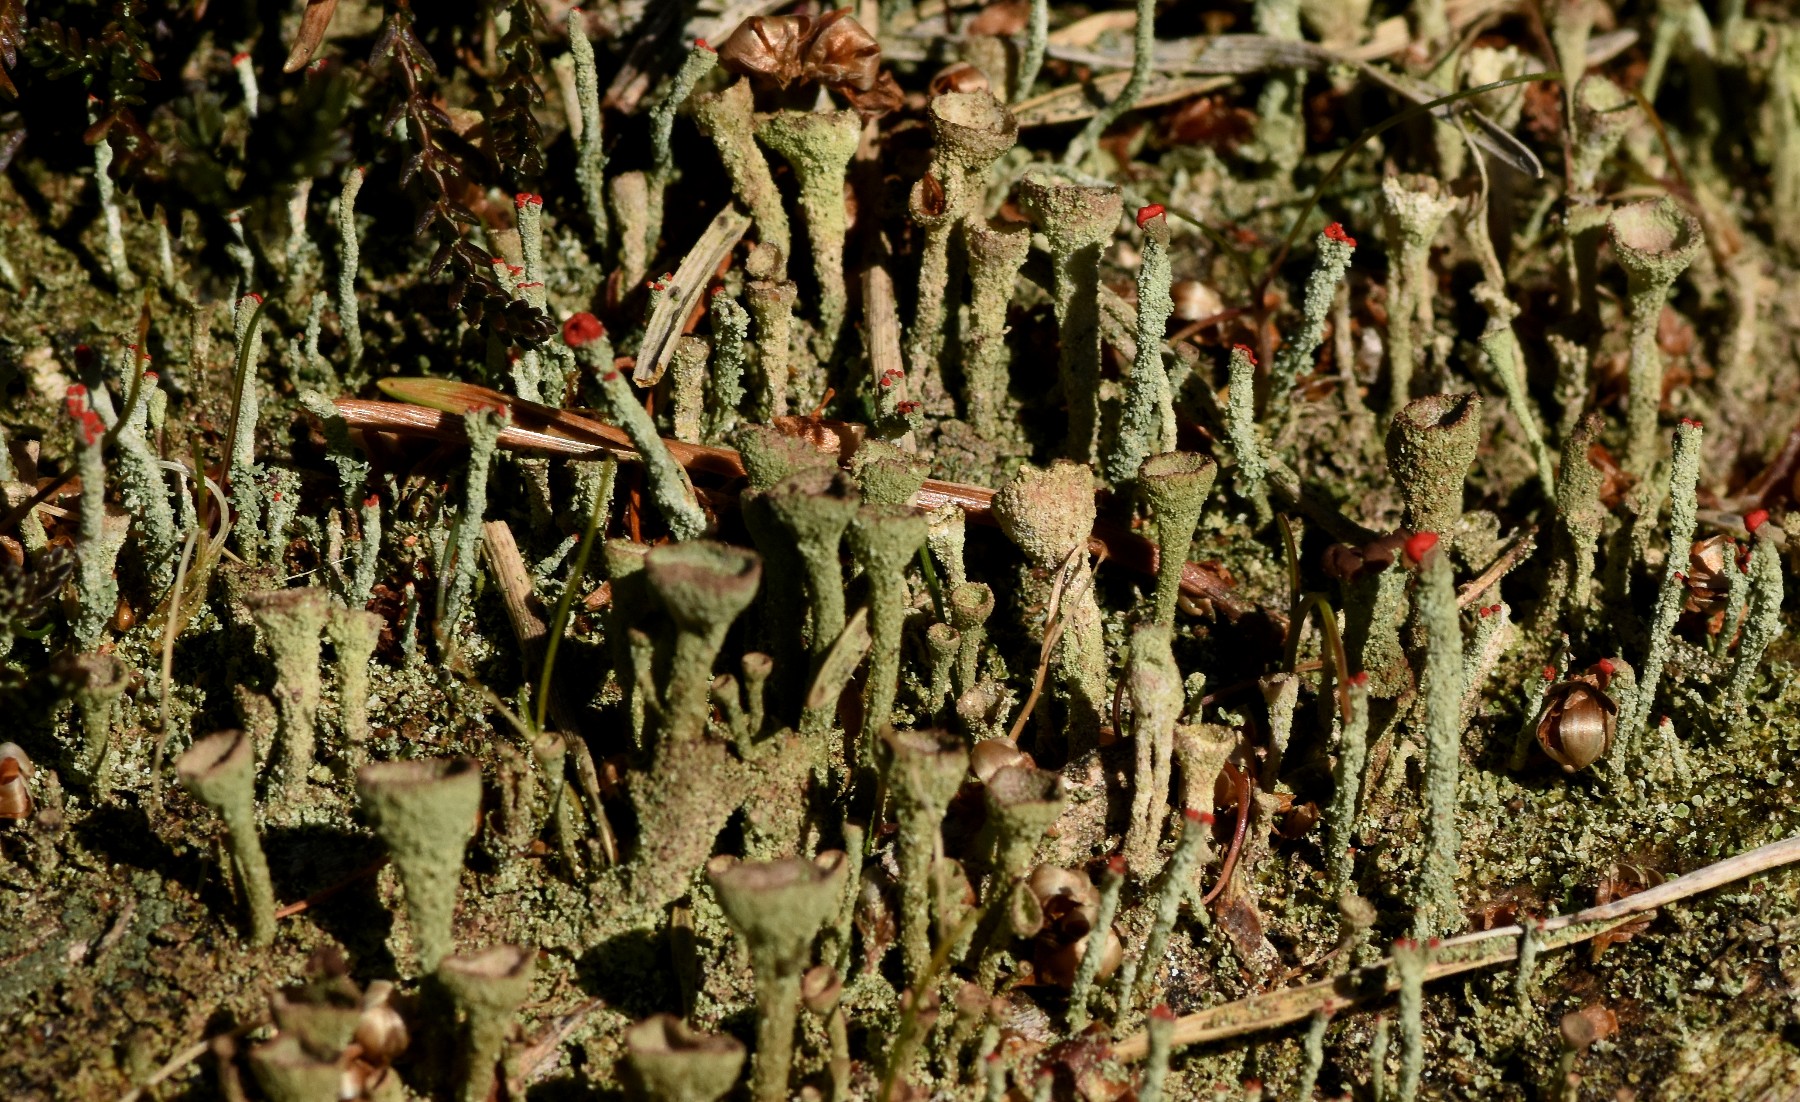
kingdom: Fungi
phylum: Ascomycota
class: Lecanoromycetes
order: Lecanorales
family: Cladoniaceae
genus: Cladonia
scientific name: Cladonia
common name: brungrøn bægerlav
